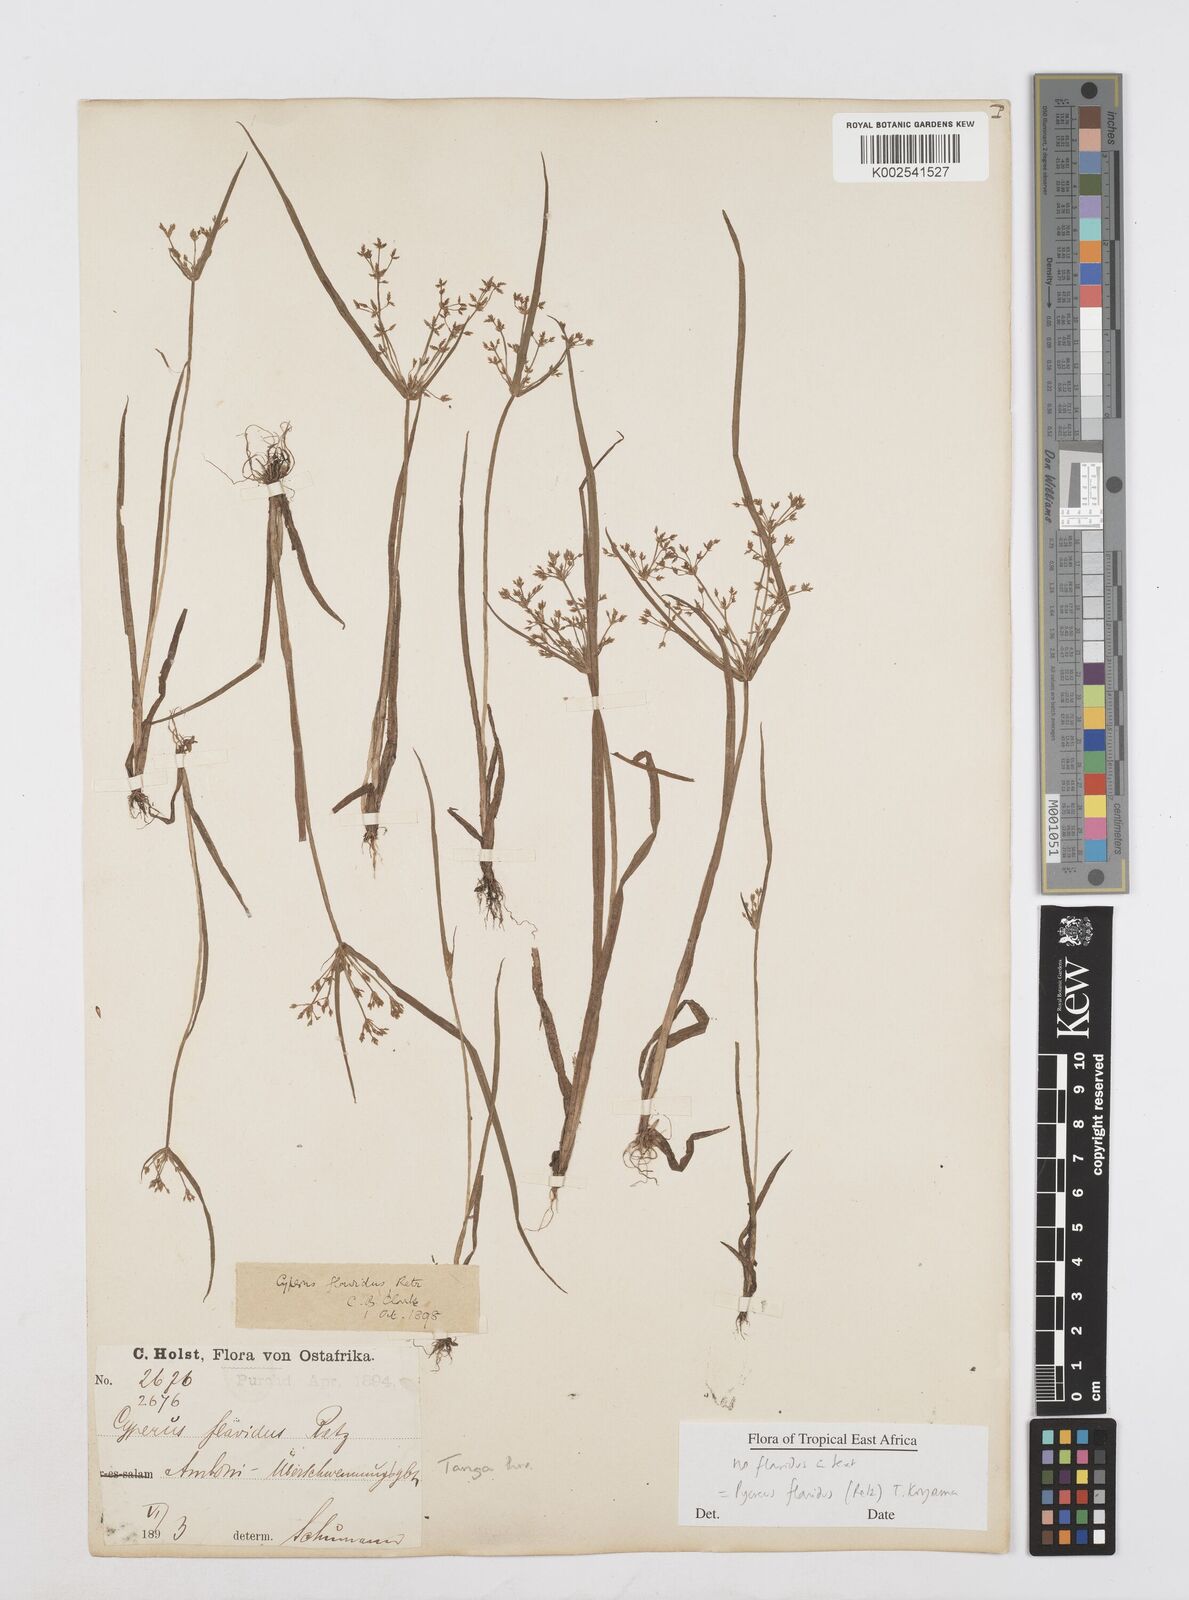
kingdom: Plantae
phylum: Tracheophyta
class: Liliopsida
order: Poales
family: Cyperaceae
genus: Cyperus
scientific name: Cyperus flavidus
